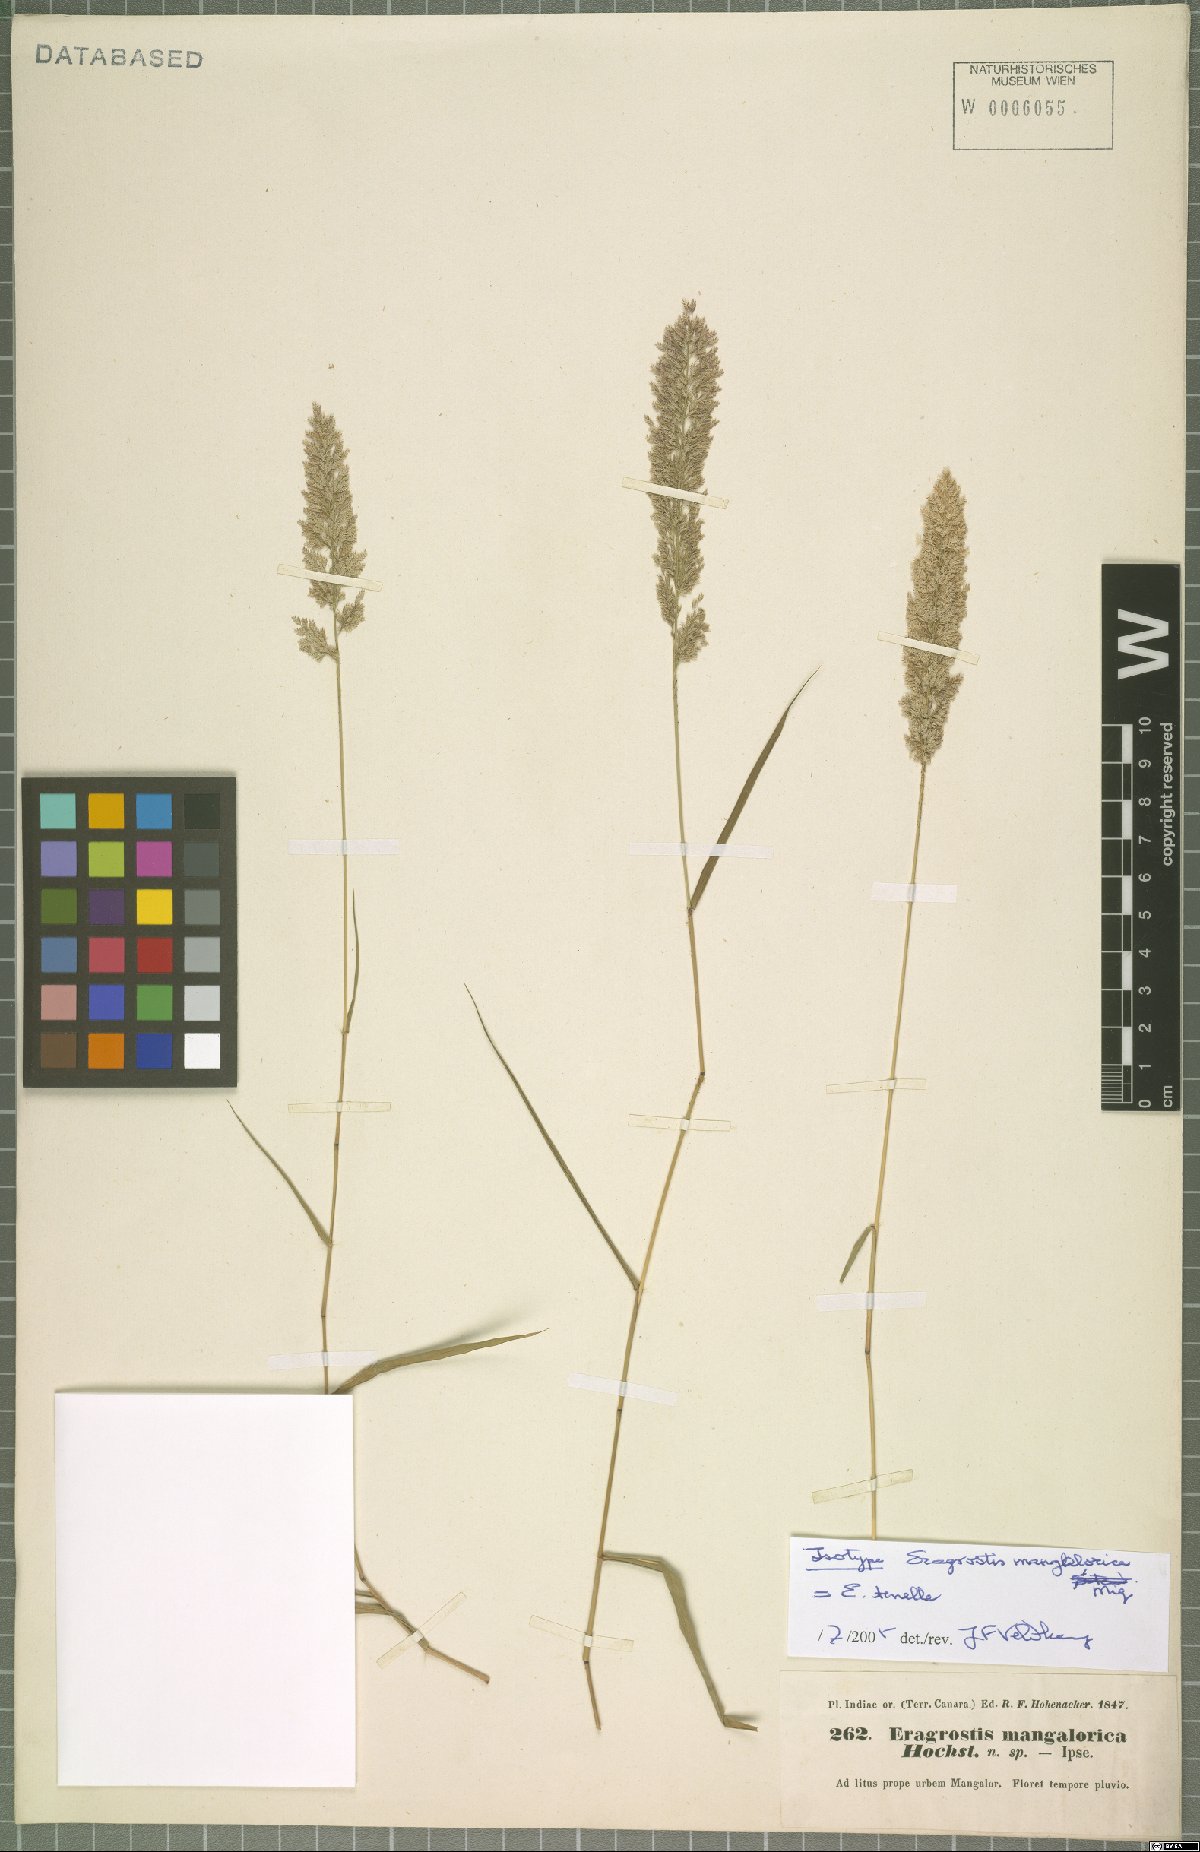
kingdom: Plantae
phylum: Tracheophyta
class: Liliopsida
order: Poales
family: Poaceae
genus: Eragrostis
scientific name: Eragrostis tenella
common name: Japanese lovegrass
